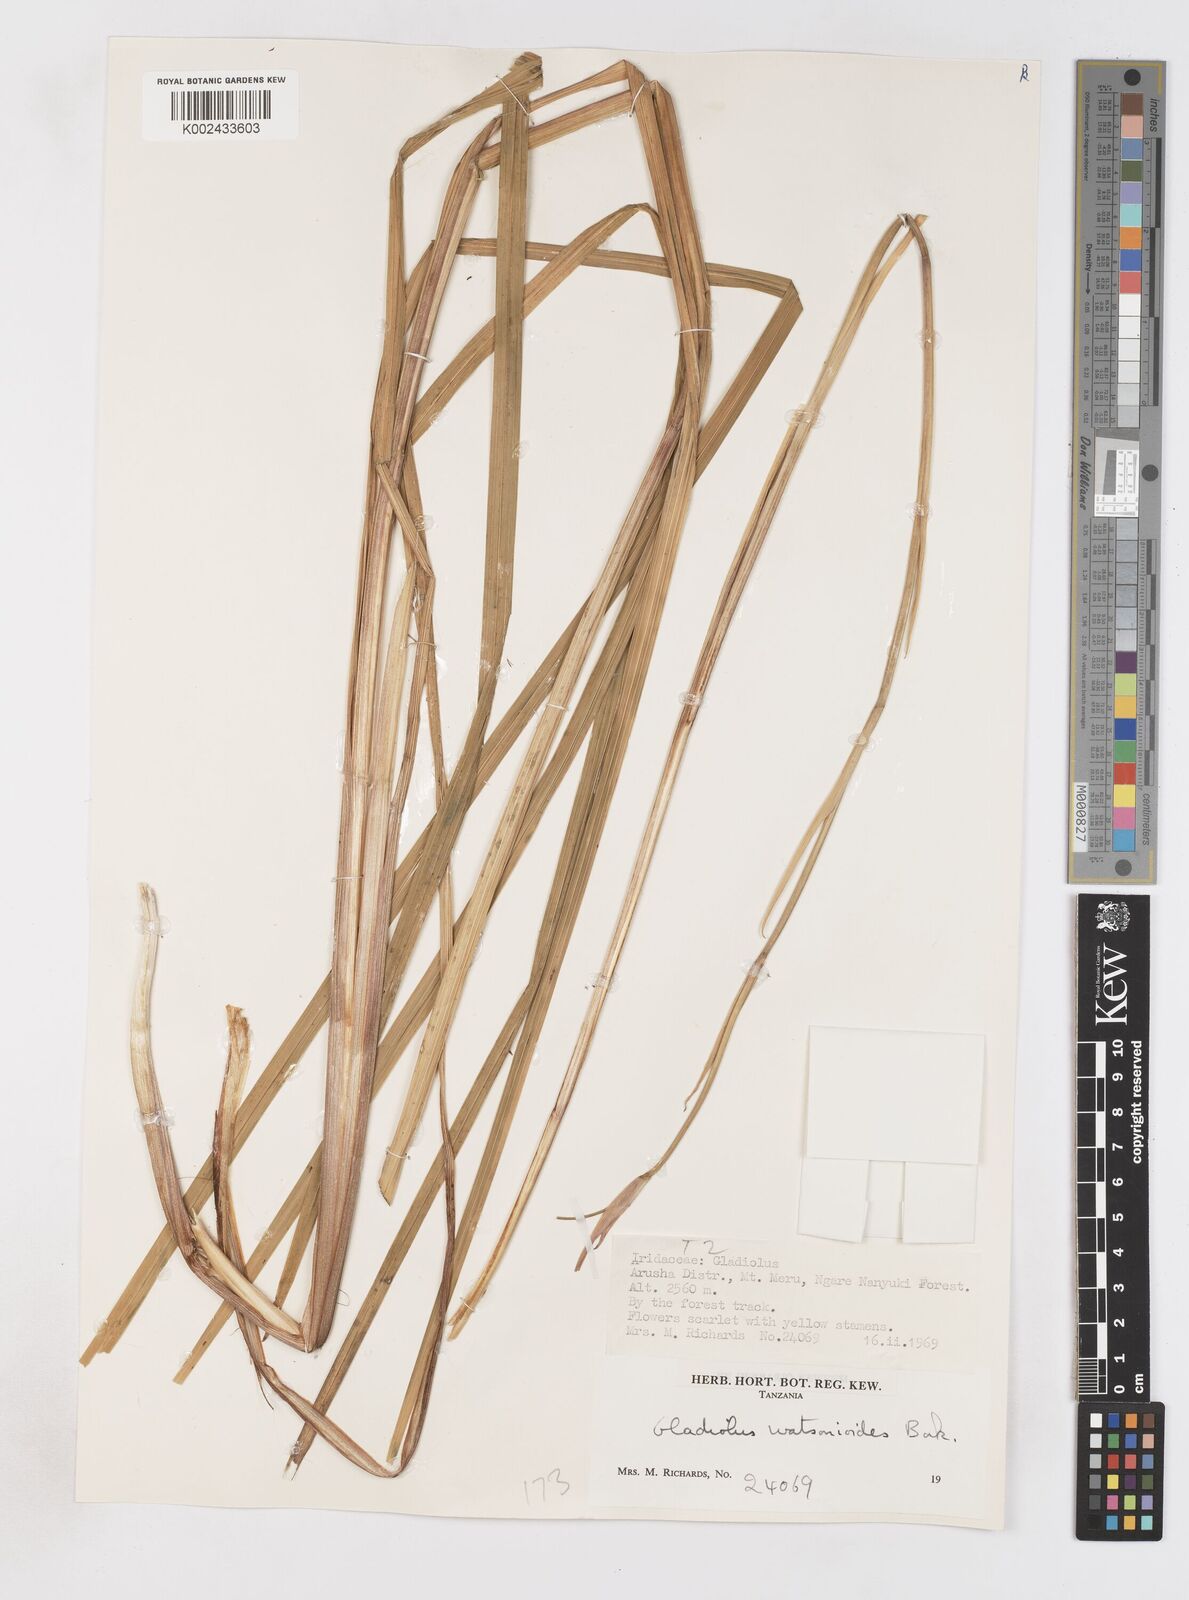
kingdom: Plantae
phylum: Tracheophyta
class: Liliopsida
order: Asparagales
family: Iridaceae
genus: Gladiolus
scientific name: Gladiolus watsonioides
